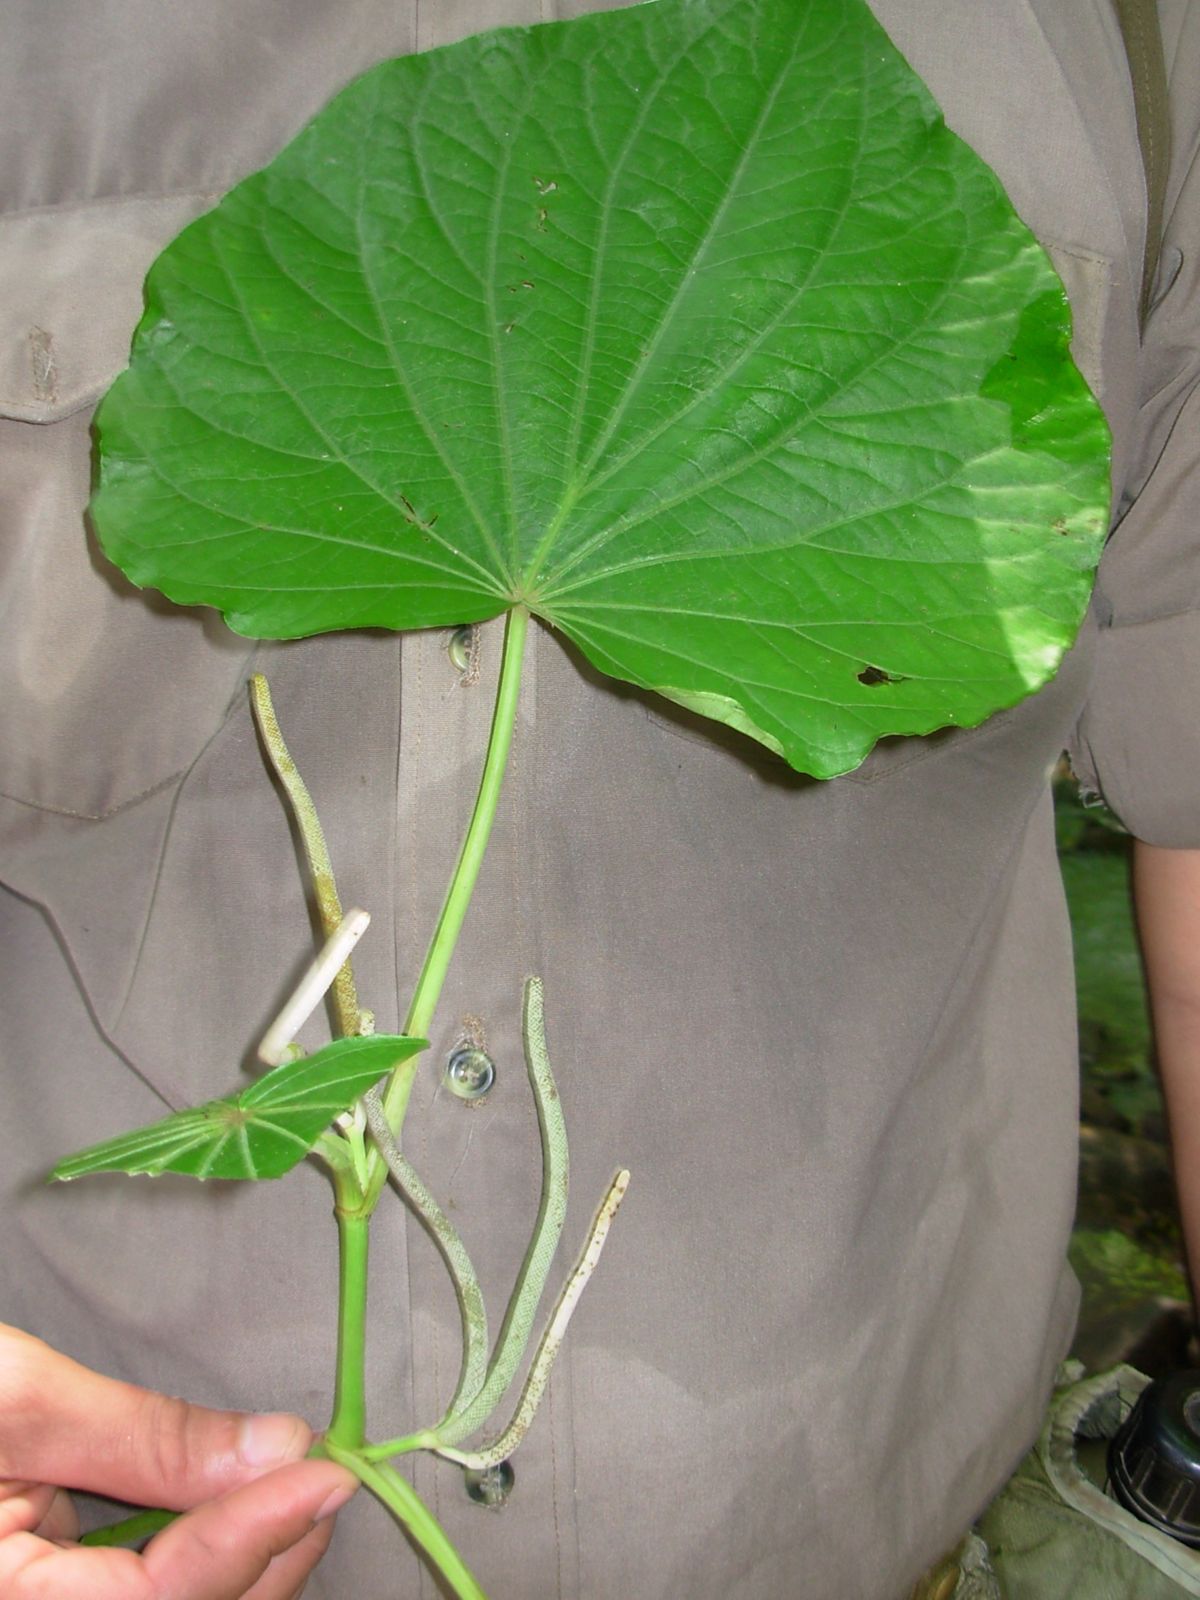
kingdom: Plantae
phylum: Tracheophyta
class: Magnoliopsida
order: Piperales
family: Piperaceae
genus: Piper
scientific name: Piper umbellatum
